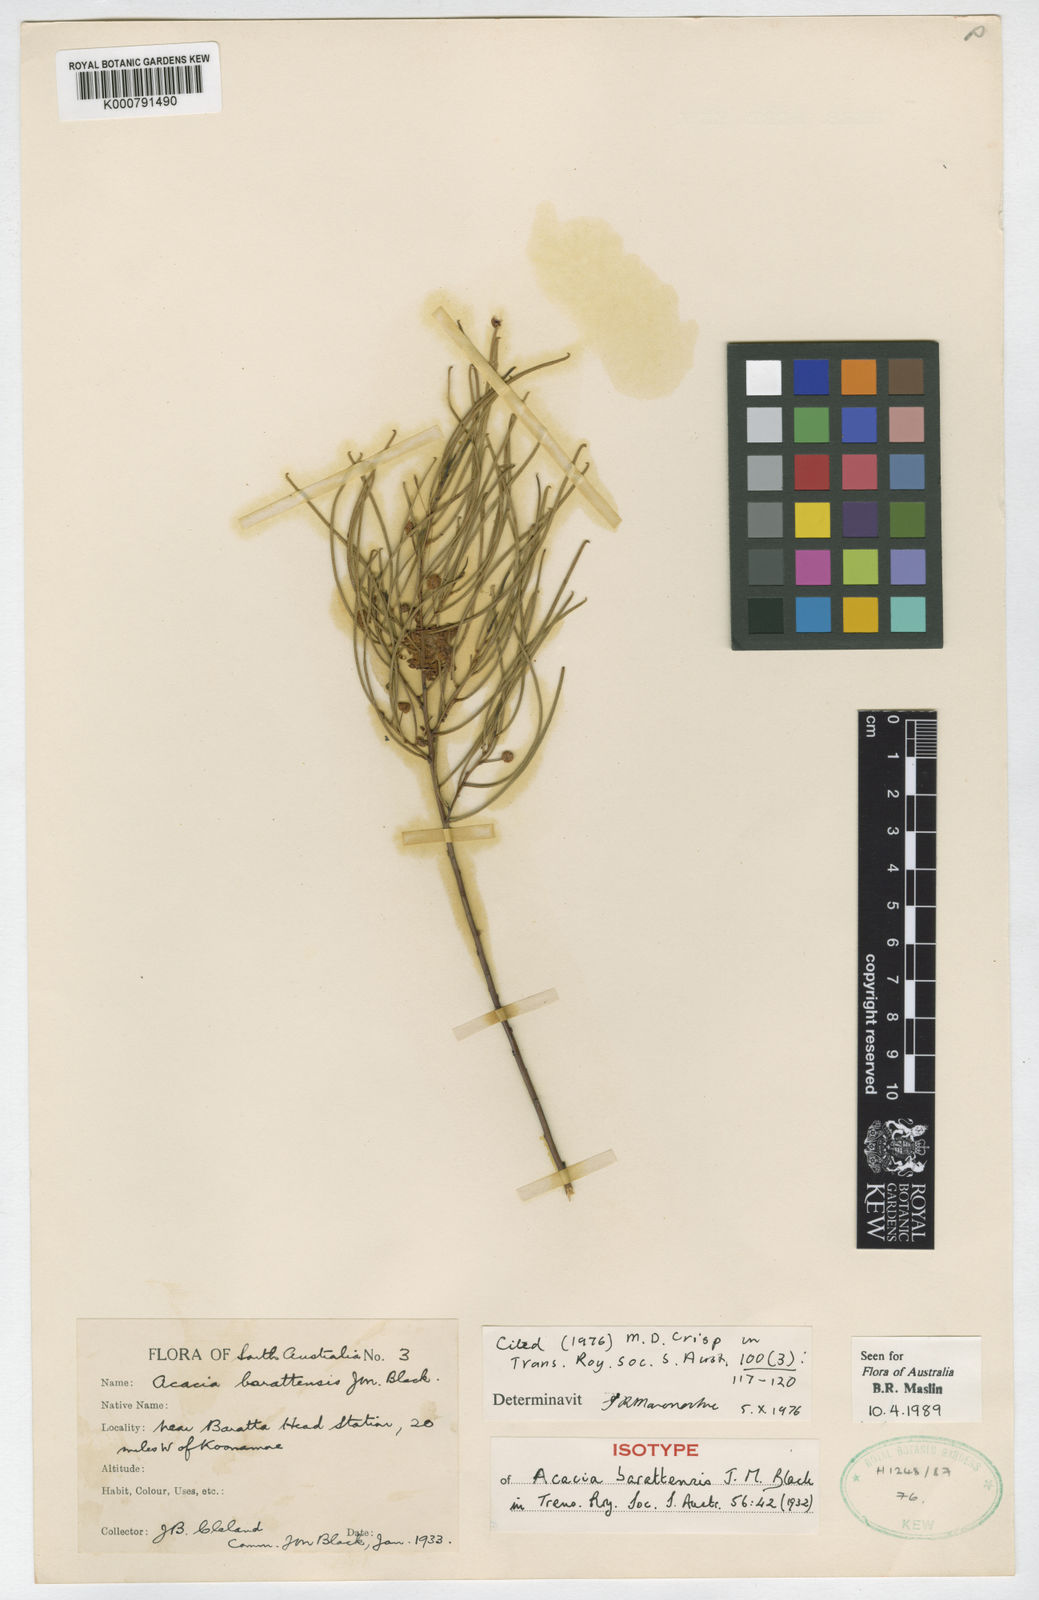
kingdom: Plantae
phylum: Tracheophyta
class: Magnoliopsida
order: Fabales
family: Fabaceae
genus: Acacia
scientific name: Acacia barattensis
